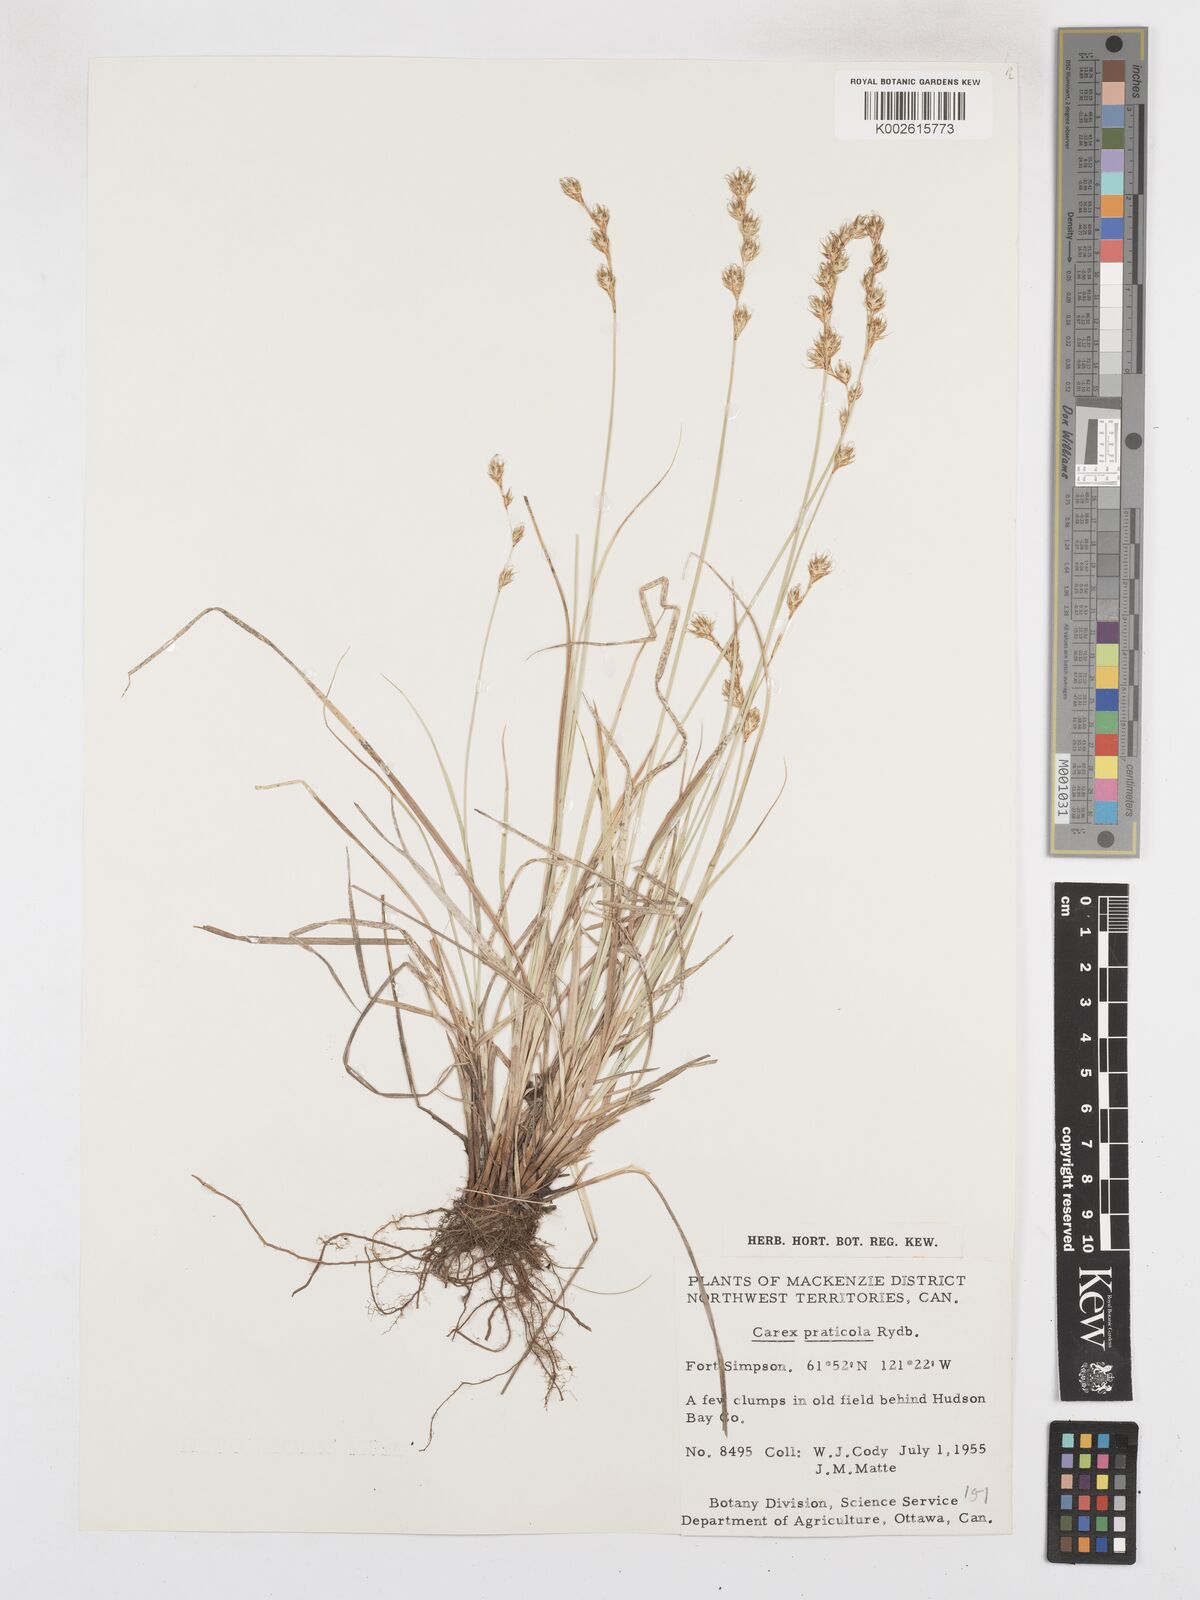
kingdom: Plantae
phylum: Tracheophyta
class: Liliopsida
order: Poales
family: Cyperaceae
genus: Carex
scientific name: Carex praticola
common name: Large-fruited oval sedge
